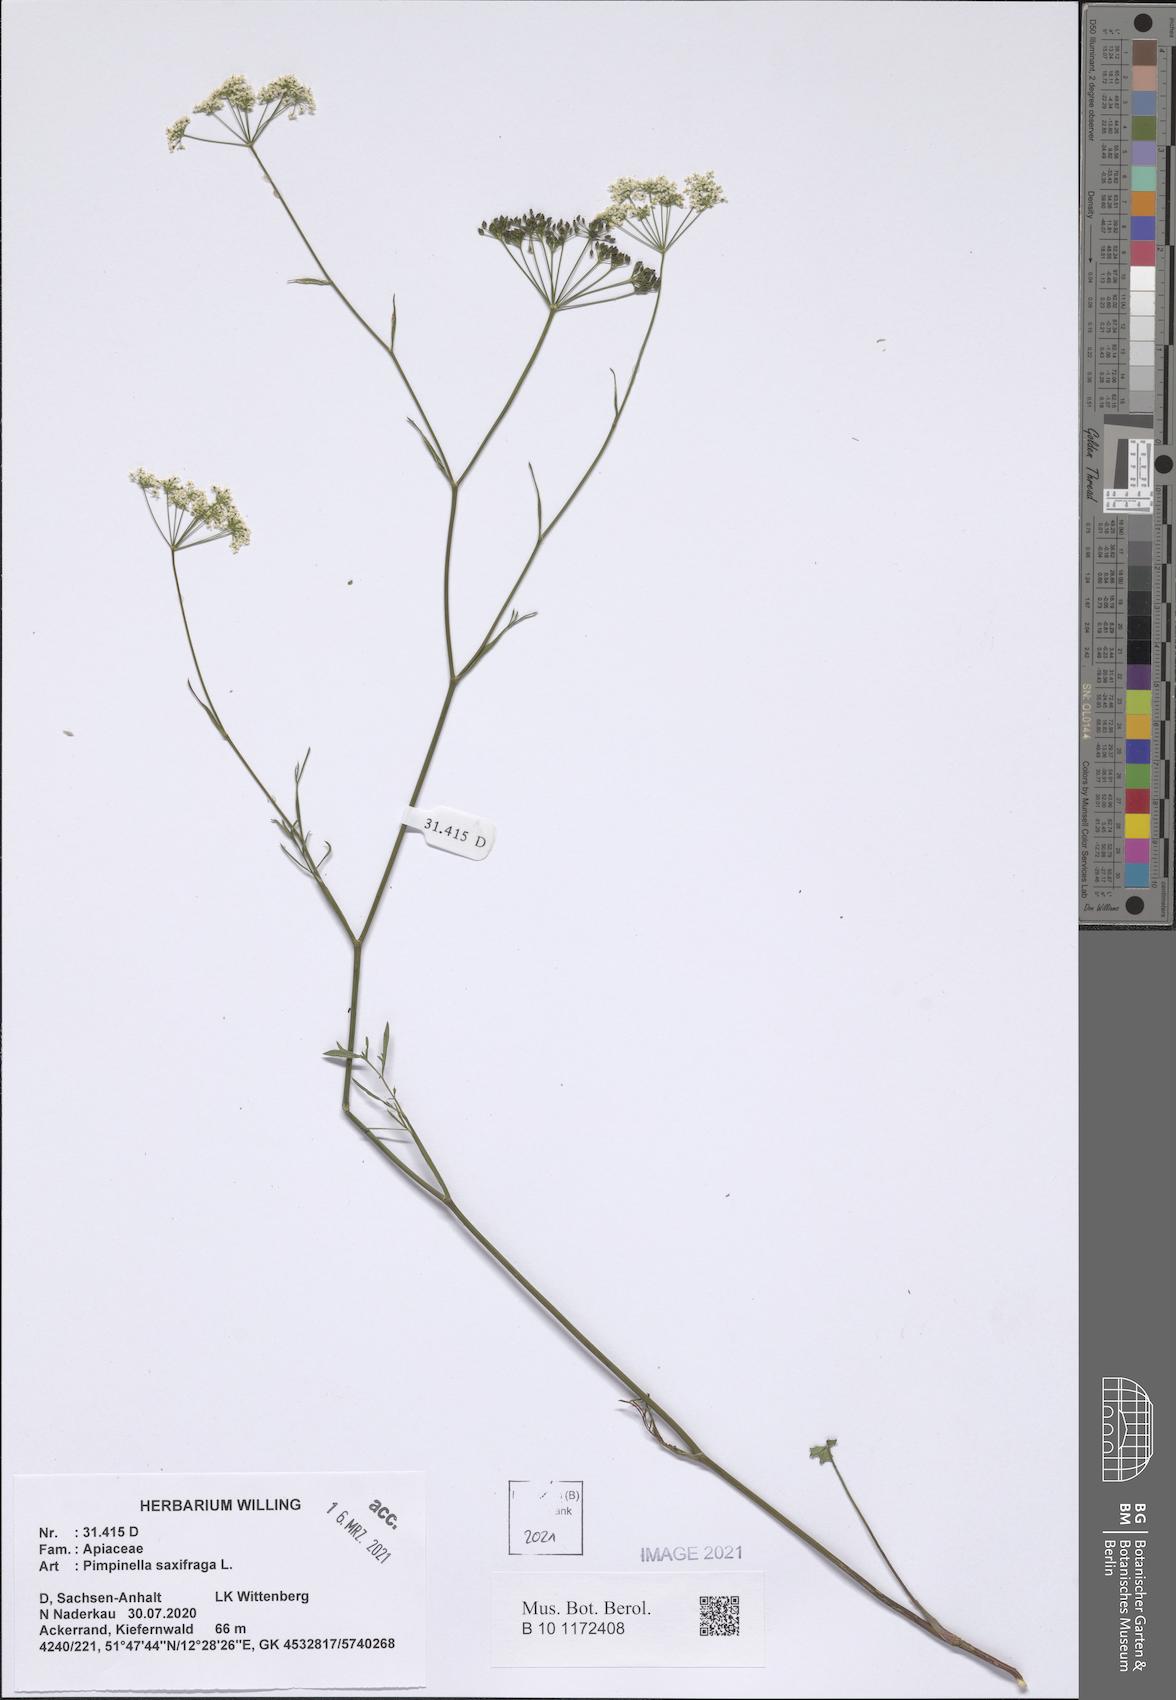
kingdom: Plantae
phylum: Tracheophyta
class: Magnoliopsida
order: Apiales
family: Apiaceae
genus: Pimpinella
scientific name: Pimpinella saxifraga
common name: Burnet-saxifrage
